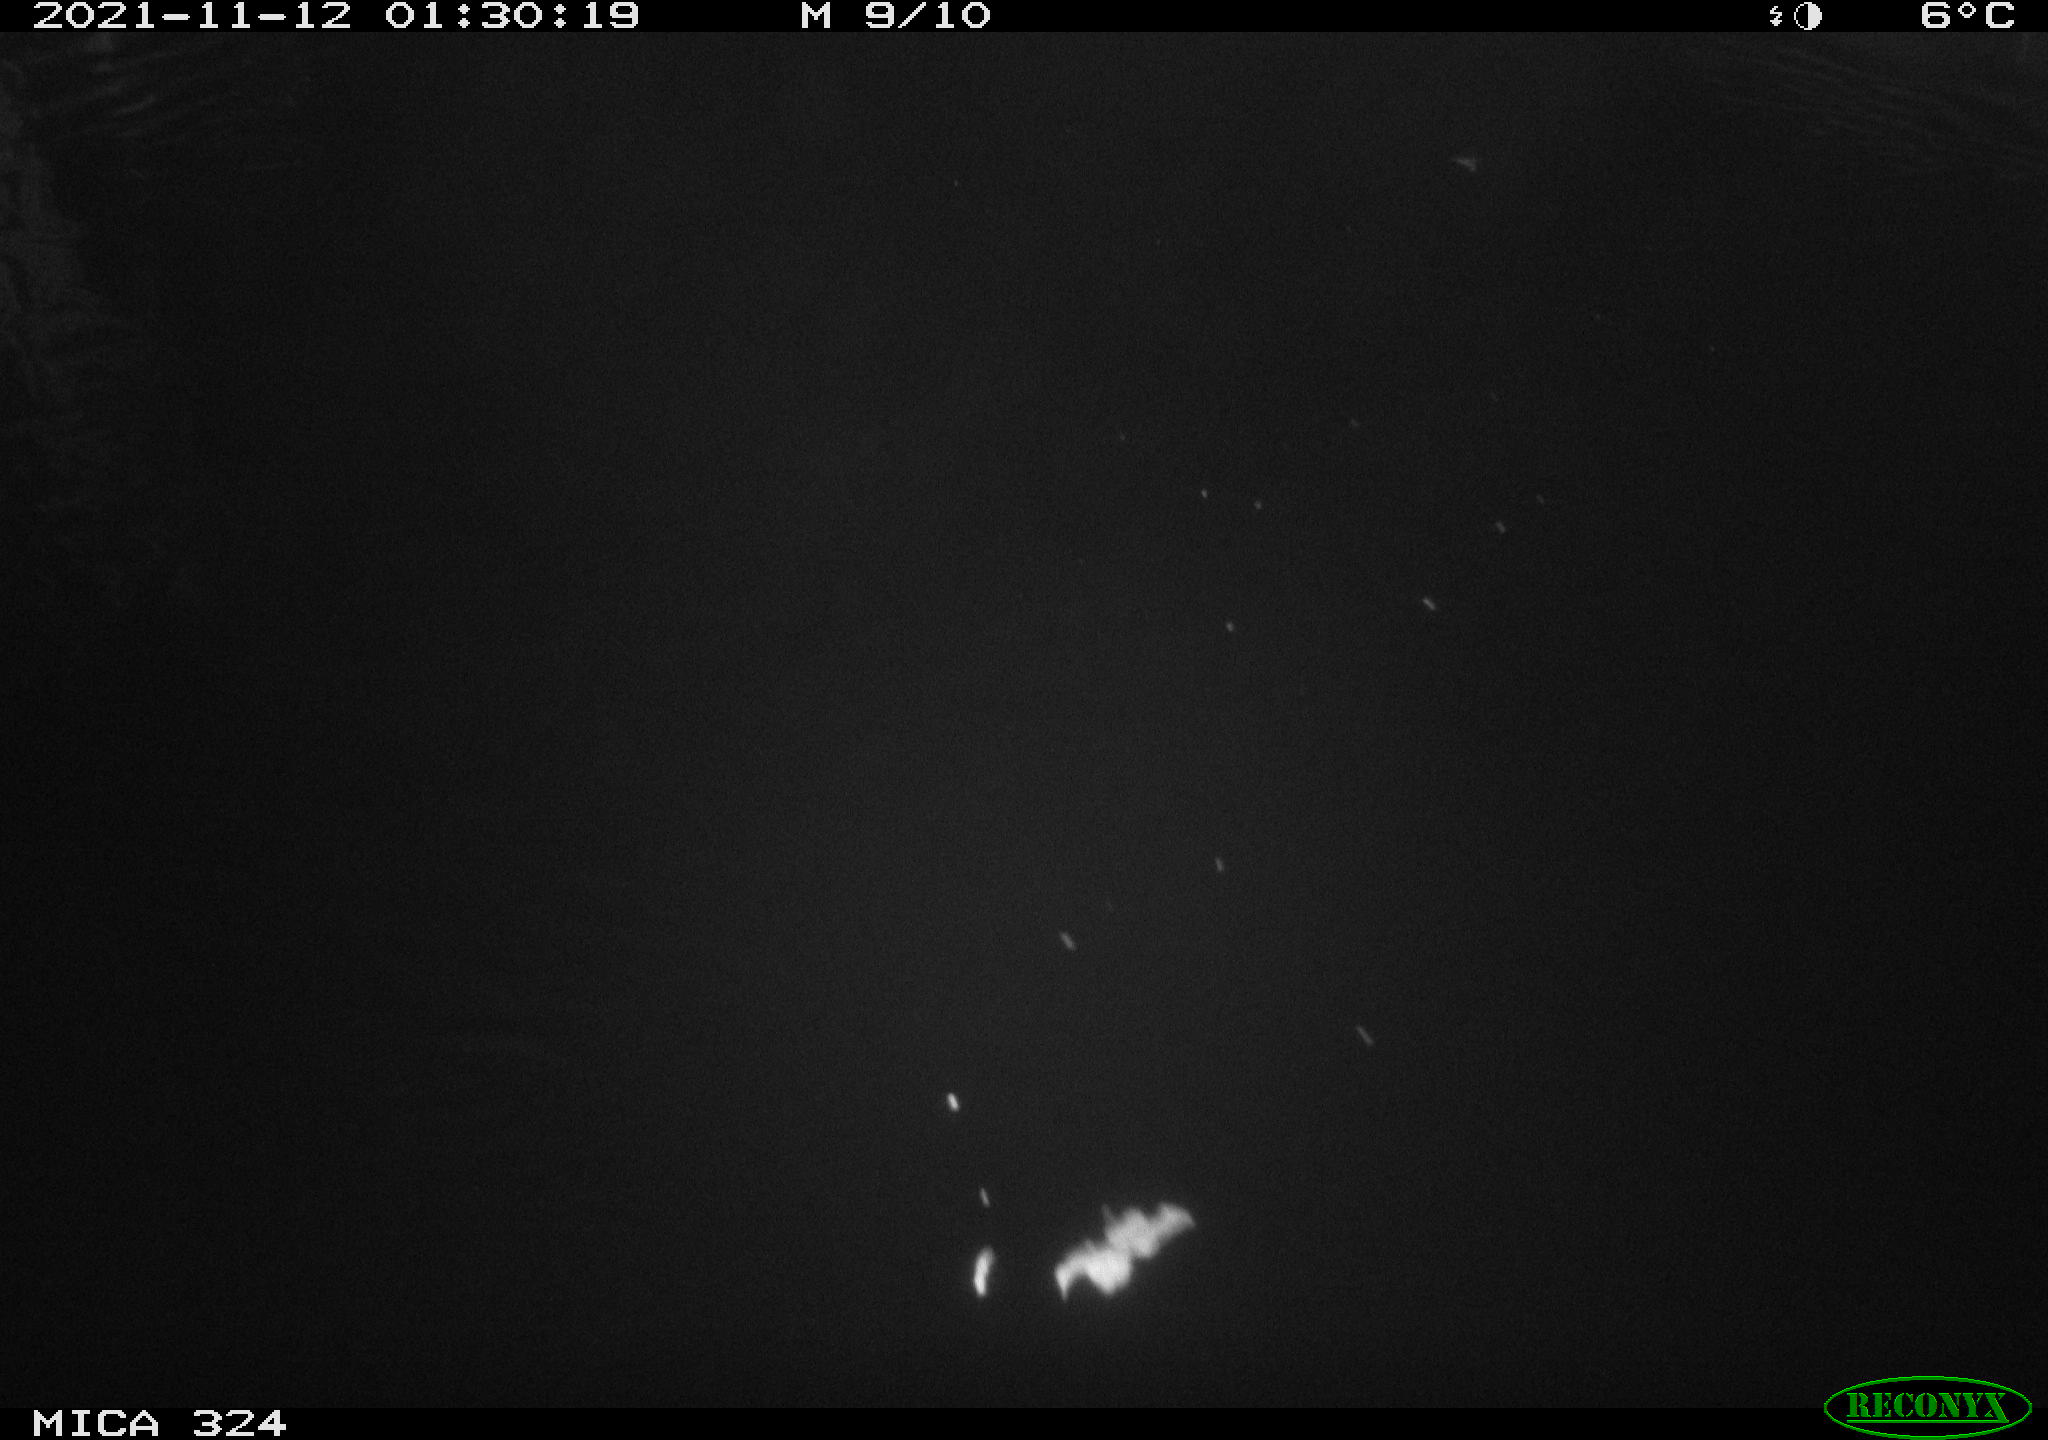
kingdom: Animalia
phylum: Chordata
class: Mammalia
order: Rodentia
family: Cricetidae
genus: Ondatra
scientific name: Ondatra zibethicus
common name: Muskrat
